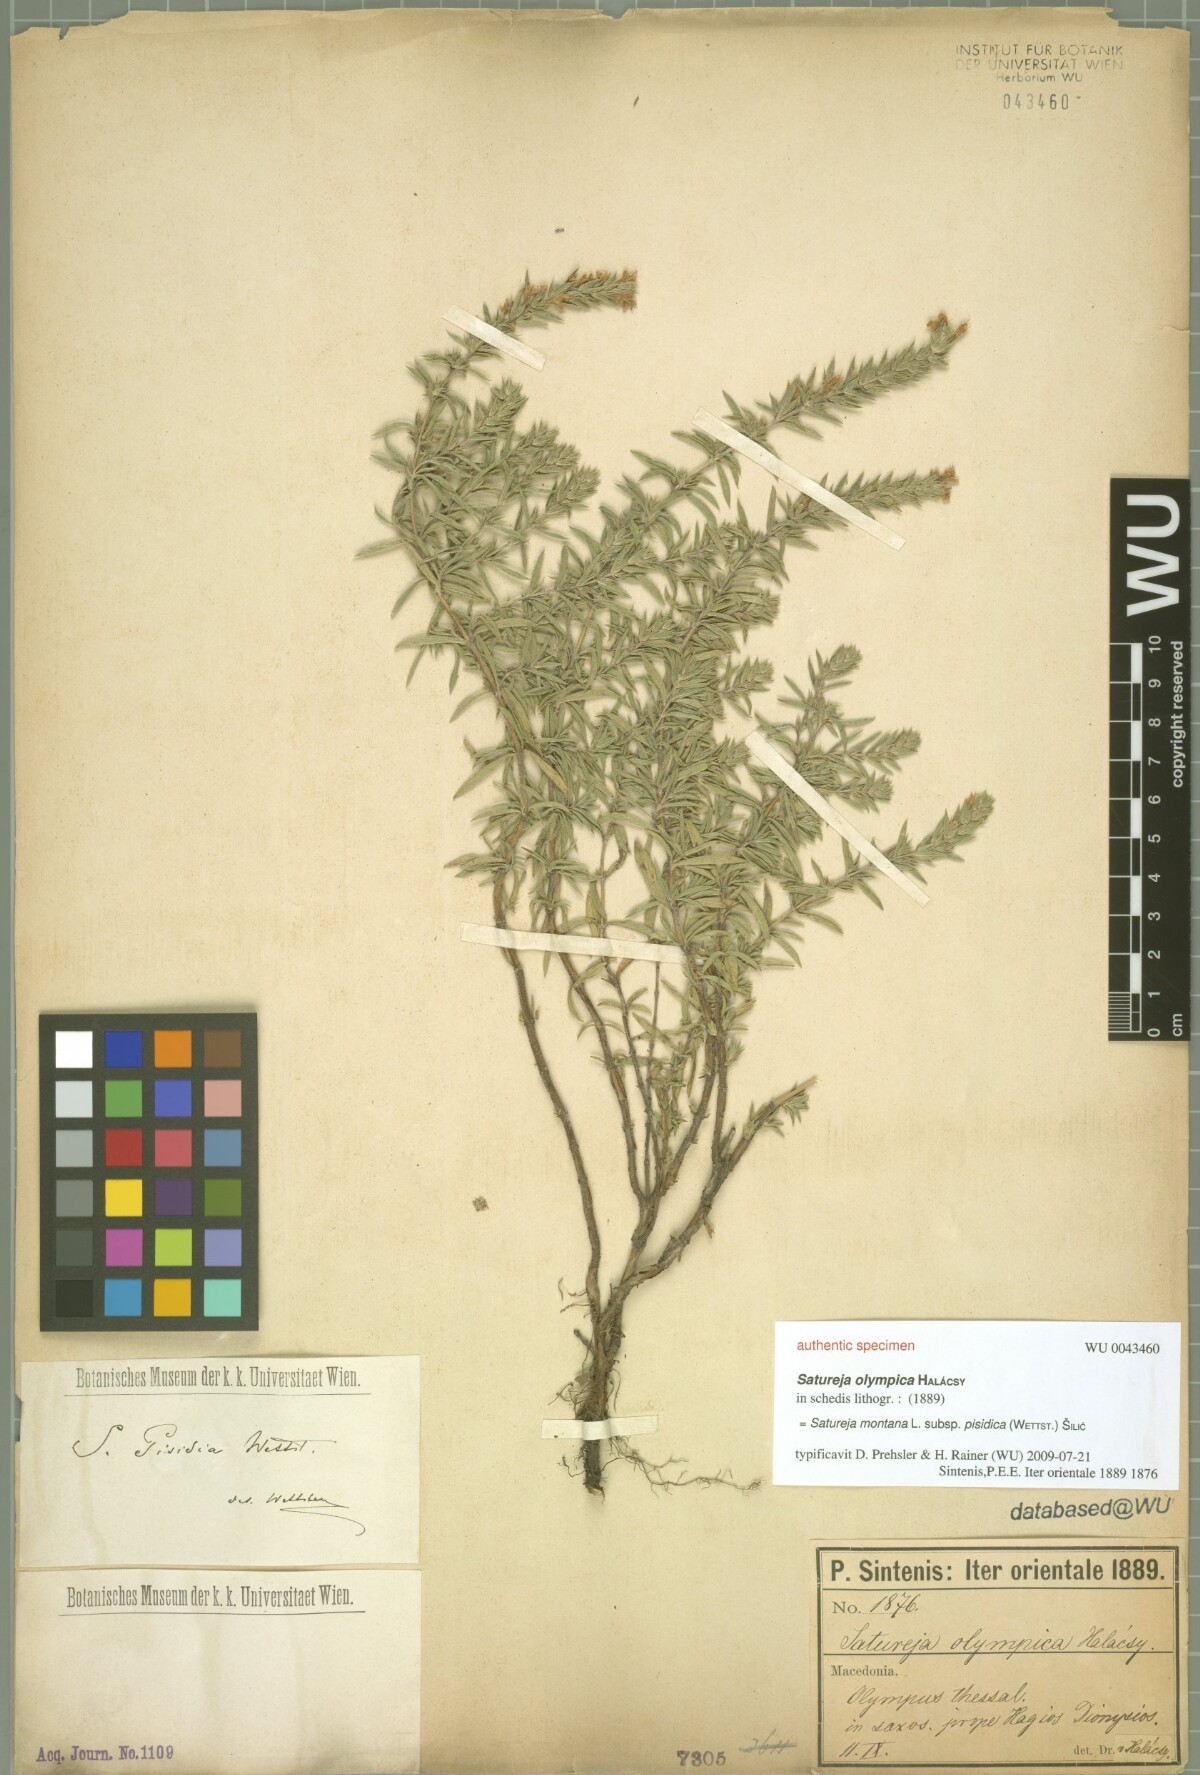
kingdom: Plantae
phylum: Tracheophyta
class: Magnoliopsida
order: Lamiales
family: Lamiaceae
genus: Satureja
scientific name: Satureja olympica
